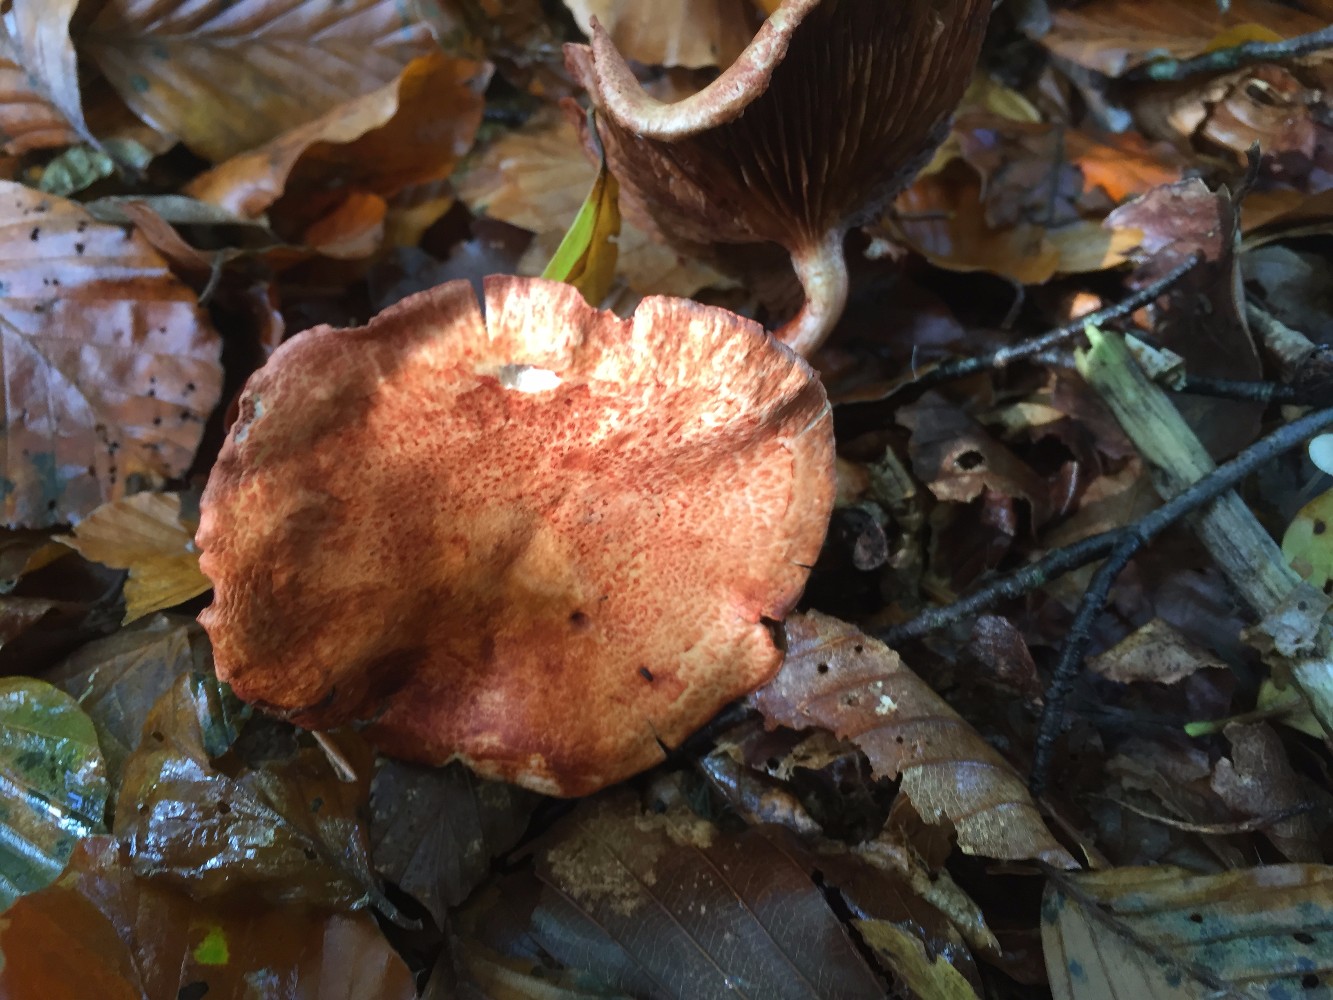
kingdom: Fungi
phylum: Basidiomycota
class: Agaricomycetes
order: Agaricales
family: Cortinariaceae
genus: Cortinarius
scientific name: Cortinarius bolaris
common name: cinnoberskællet slørhat
